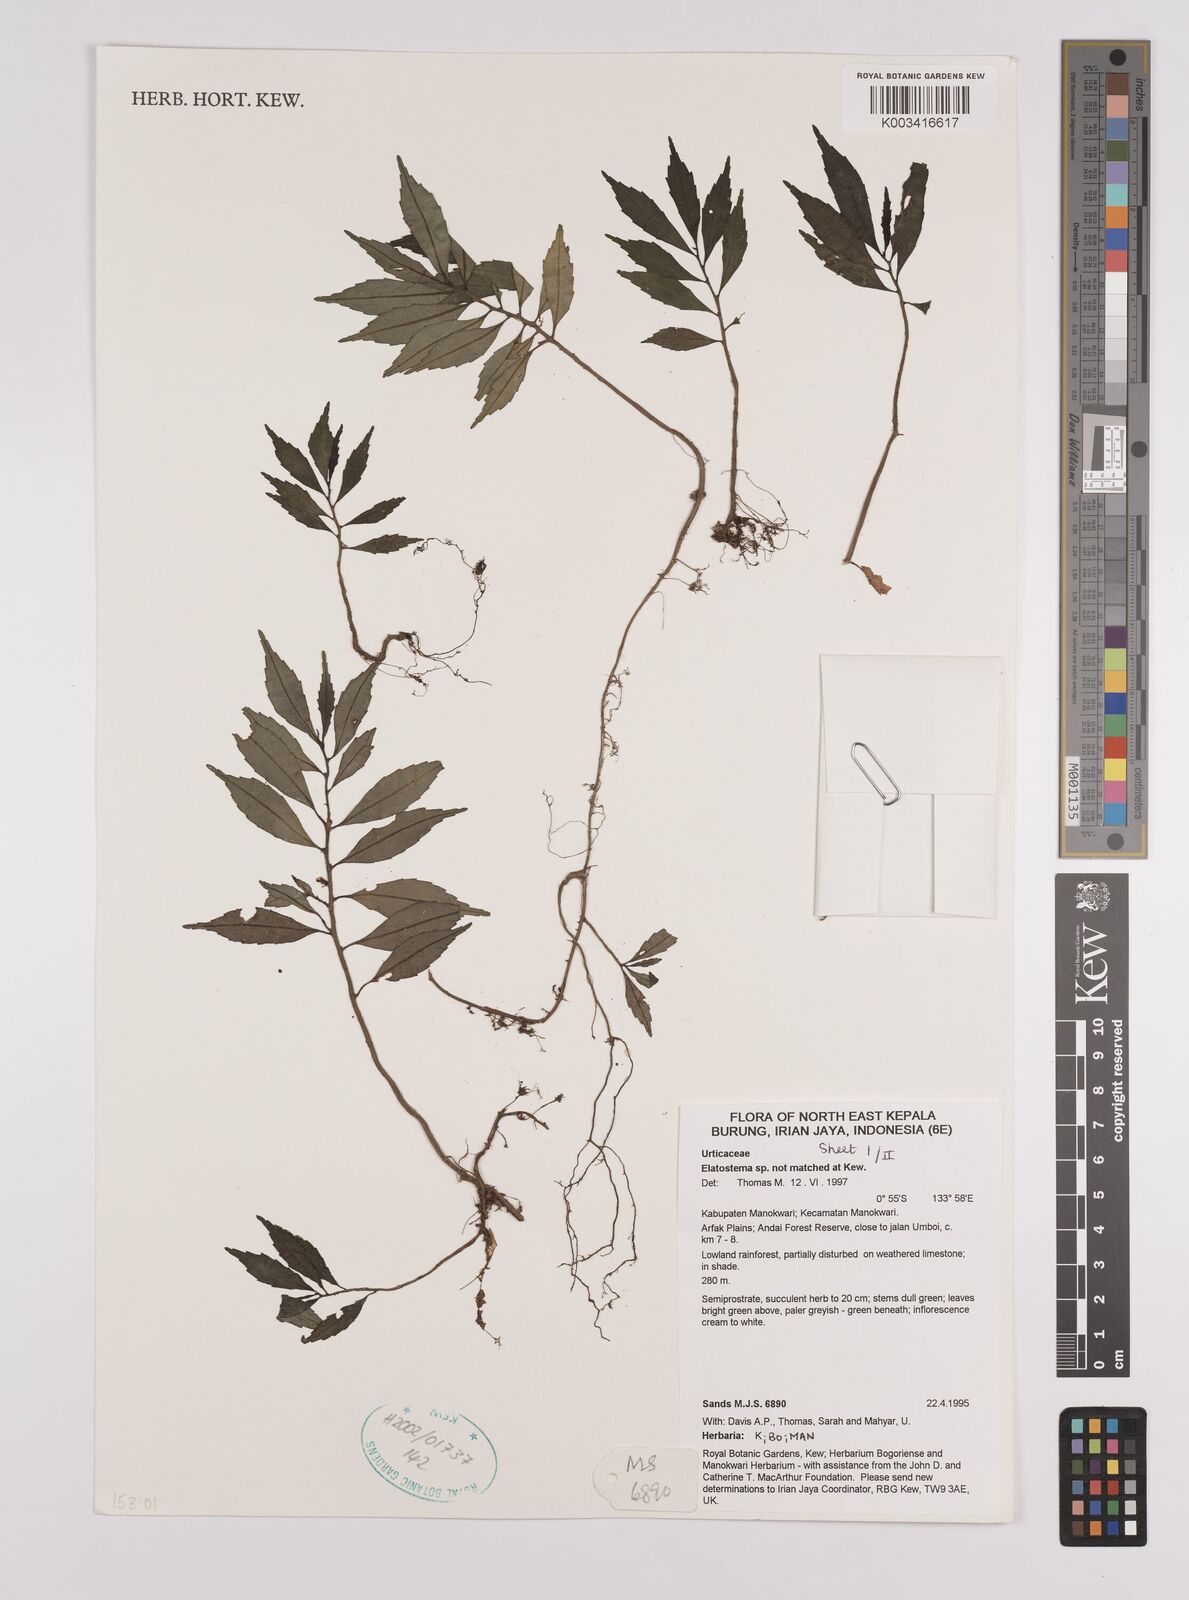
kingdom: Plantae
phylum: Tracheophyta
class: Magnoliopsida
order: Rosales
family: Urticaceae
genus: Elatostema
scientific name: Elatostema
